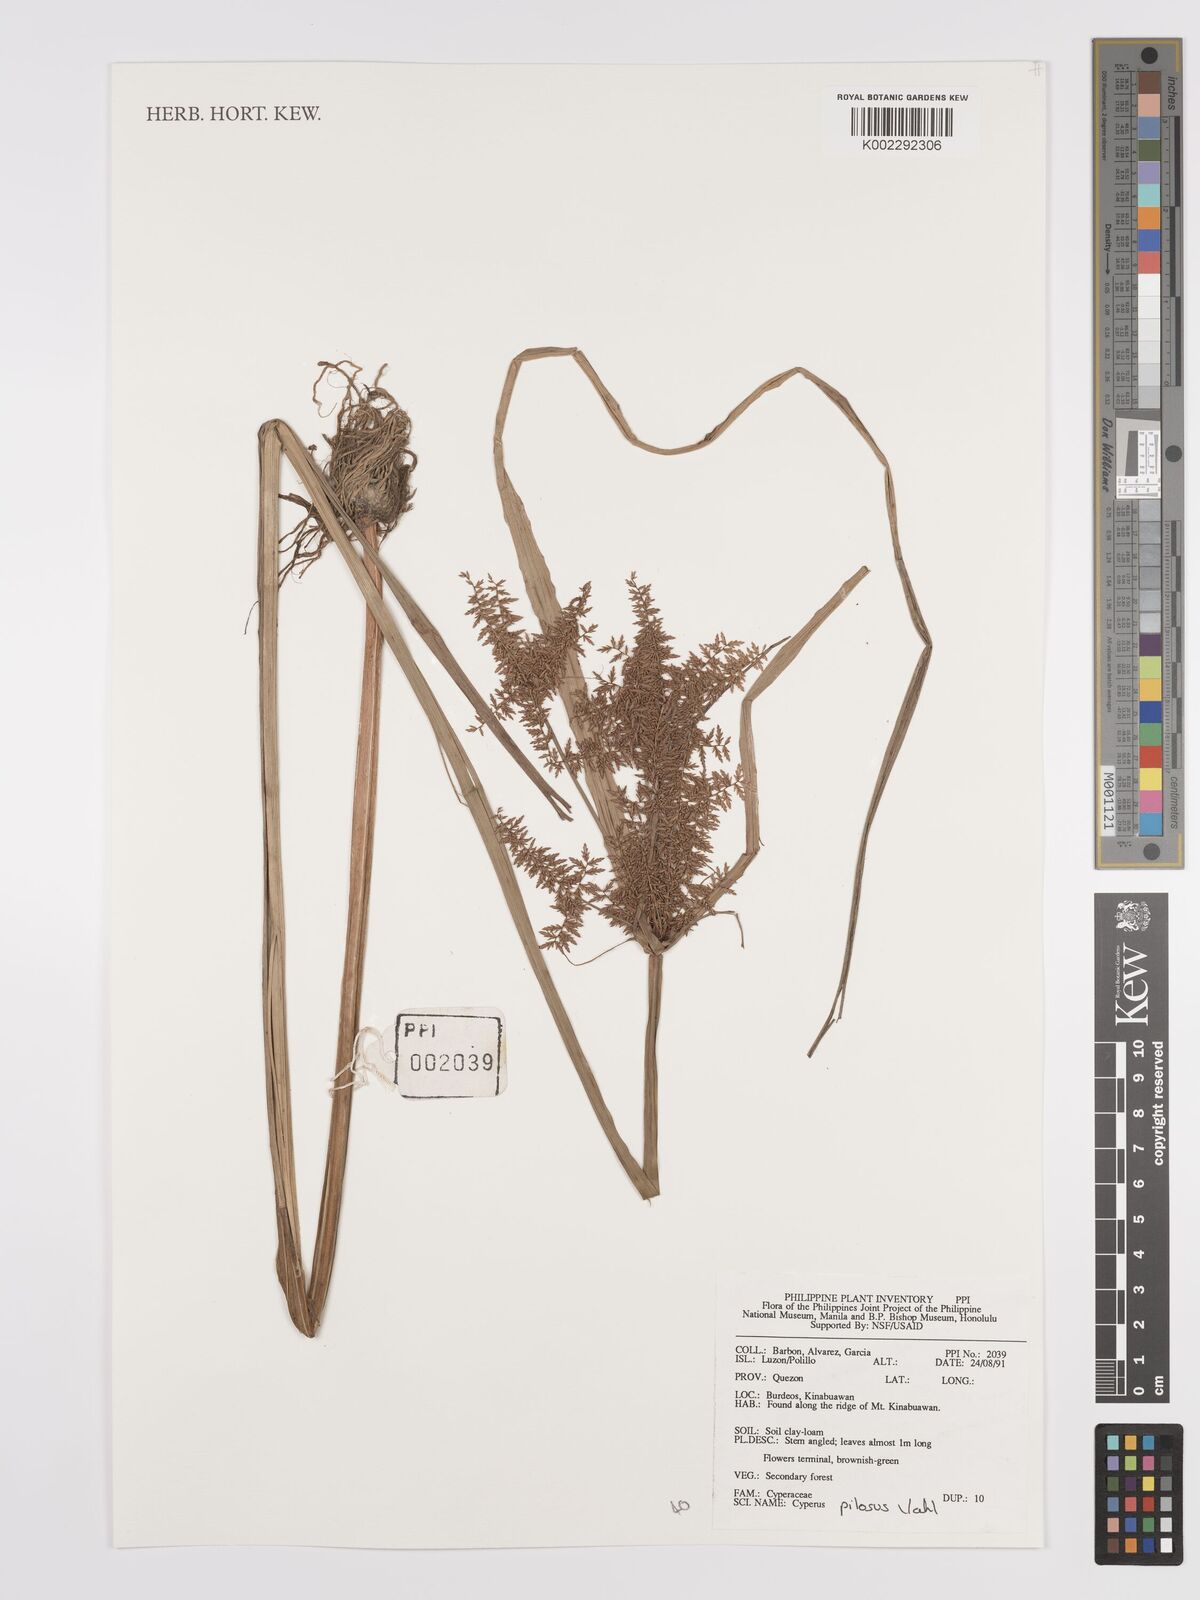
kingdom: Plantae
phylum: Tracheophyta
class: Liliopsida
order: Poales
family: Cyperaceae
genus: Cyperus
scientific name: Cyperus pilosus
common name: Fuzzy flatsedge
